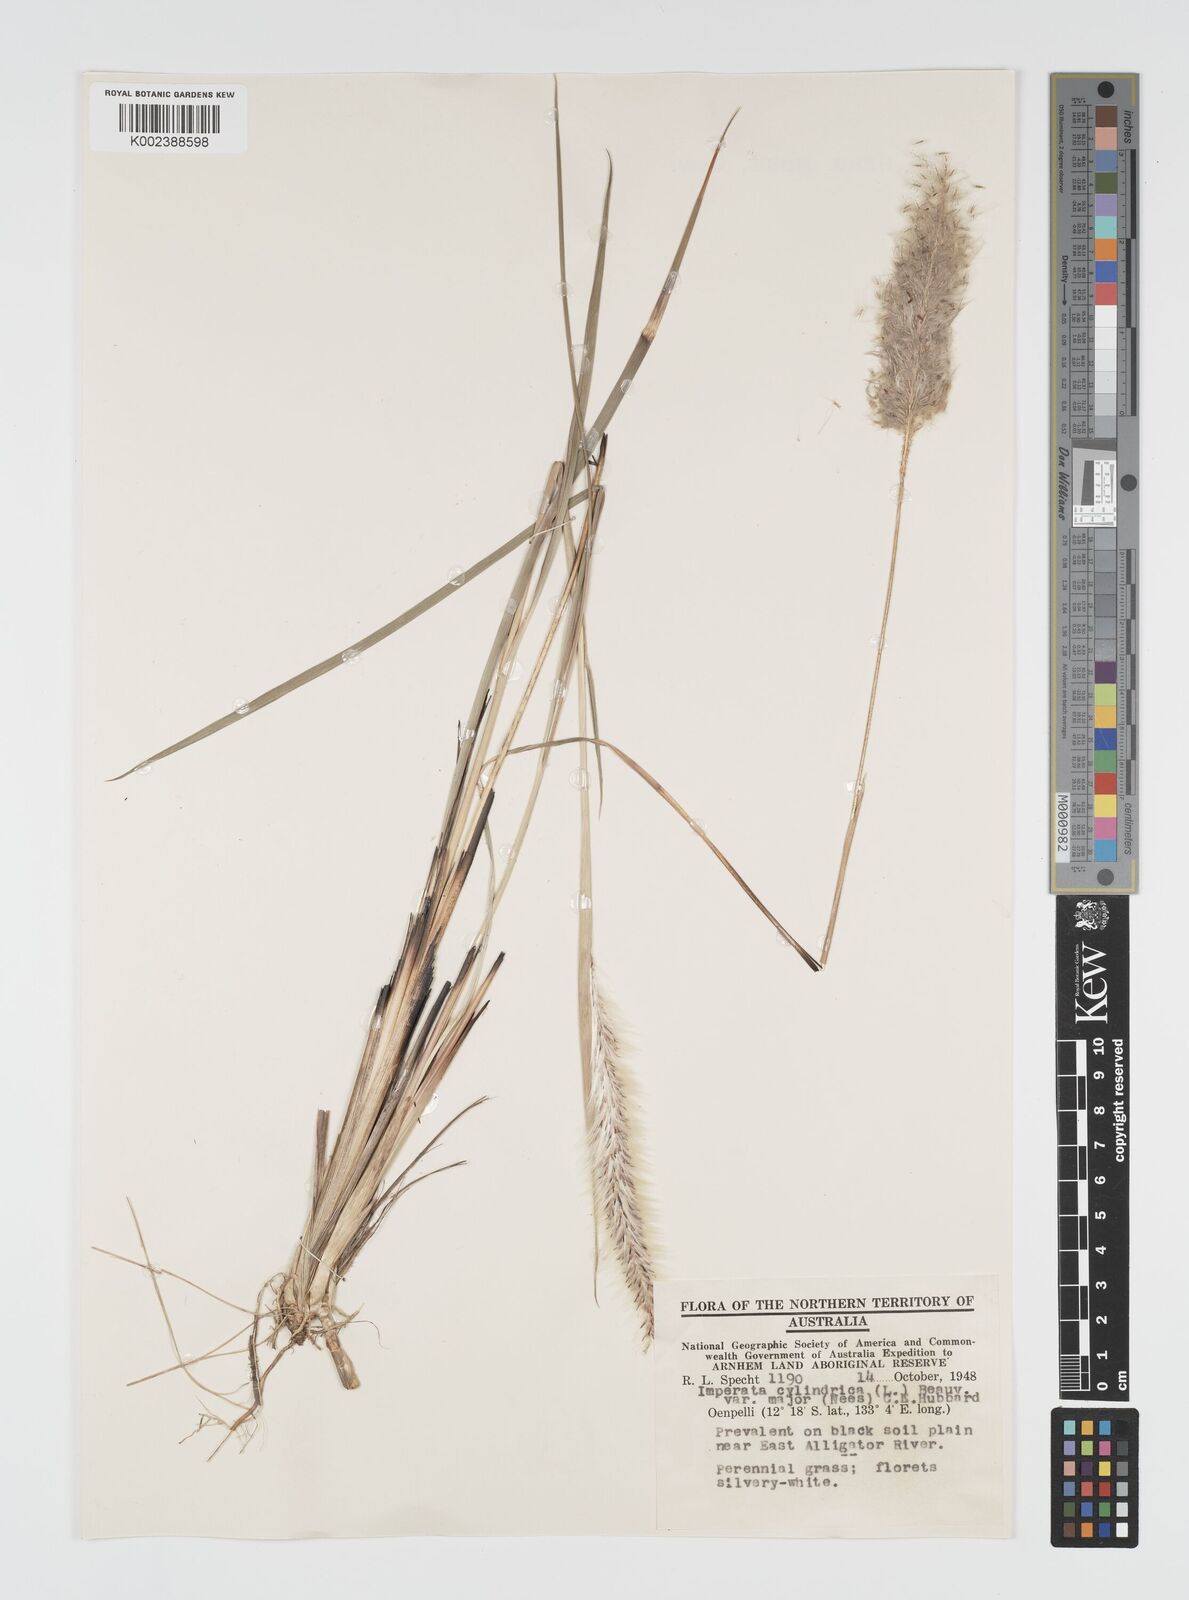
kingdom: Plantae
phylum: Tracheophyta
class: Liliopsida
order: Poales
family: Poaceae
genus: Imperata
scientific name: Imperata cylindrica
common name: Cogongrass
